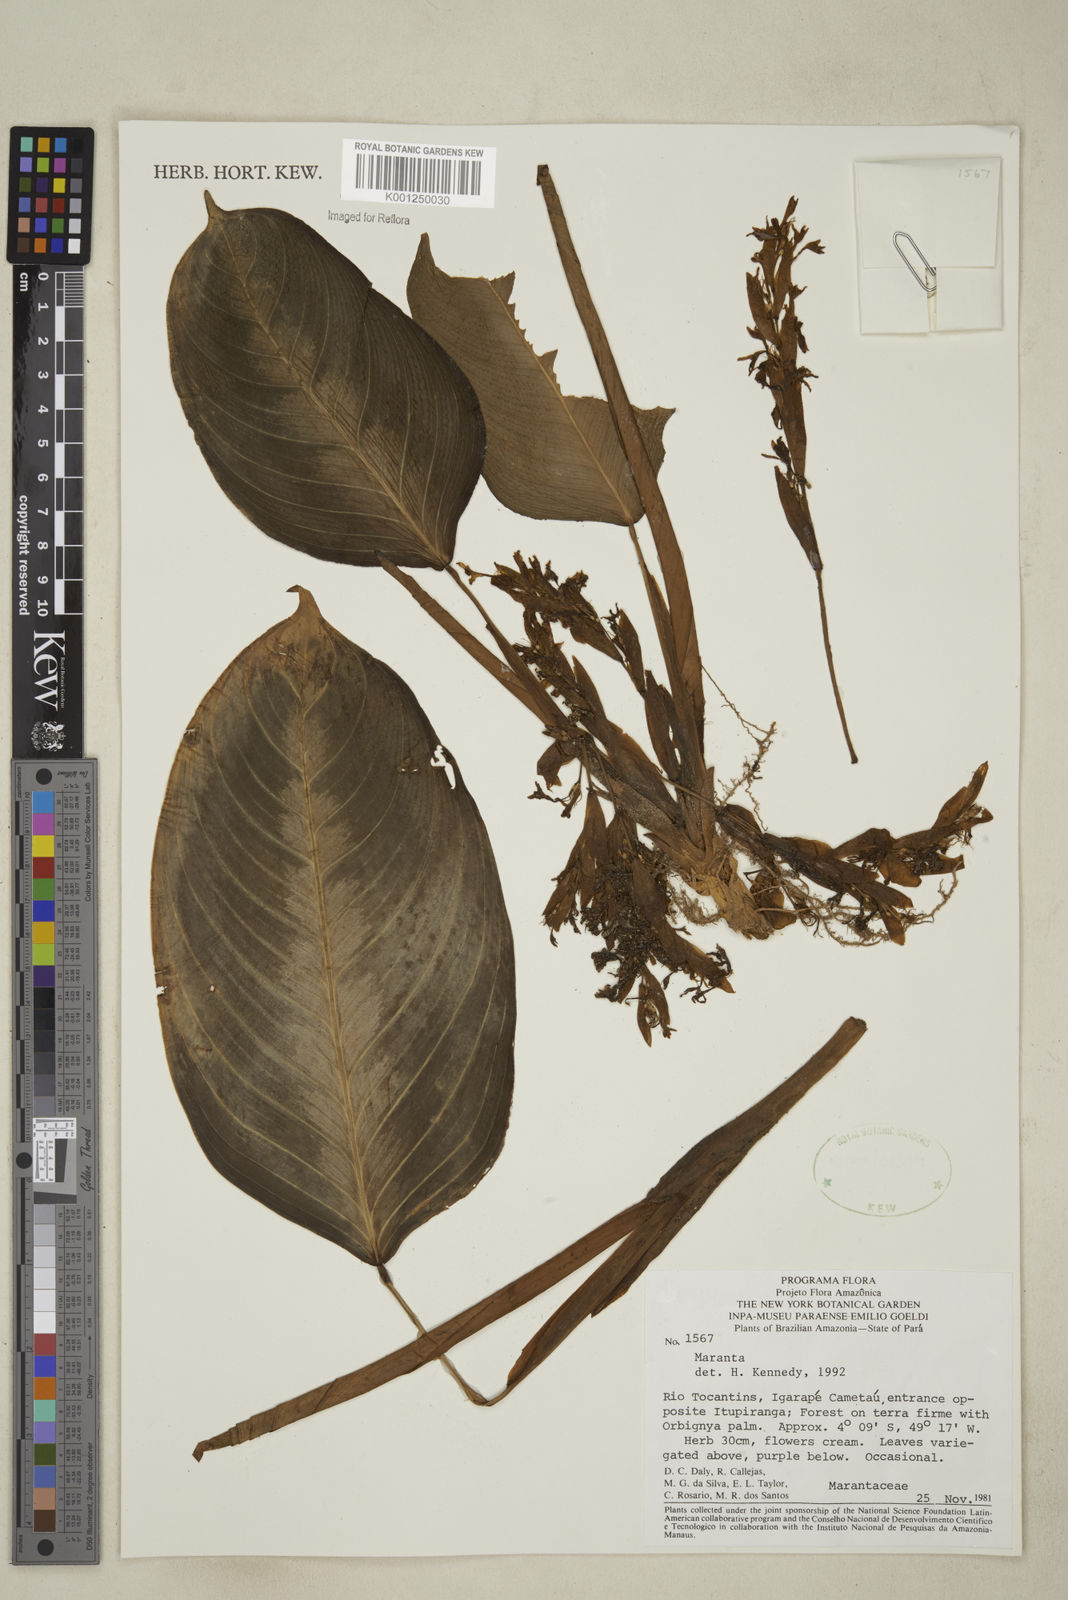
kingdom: Plantae
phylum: Tracheophyta
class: Liliopsida
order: Zingiberales
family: Marantaceae
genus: Maranta
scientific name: Maranta
